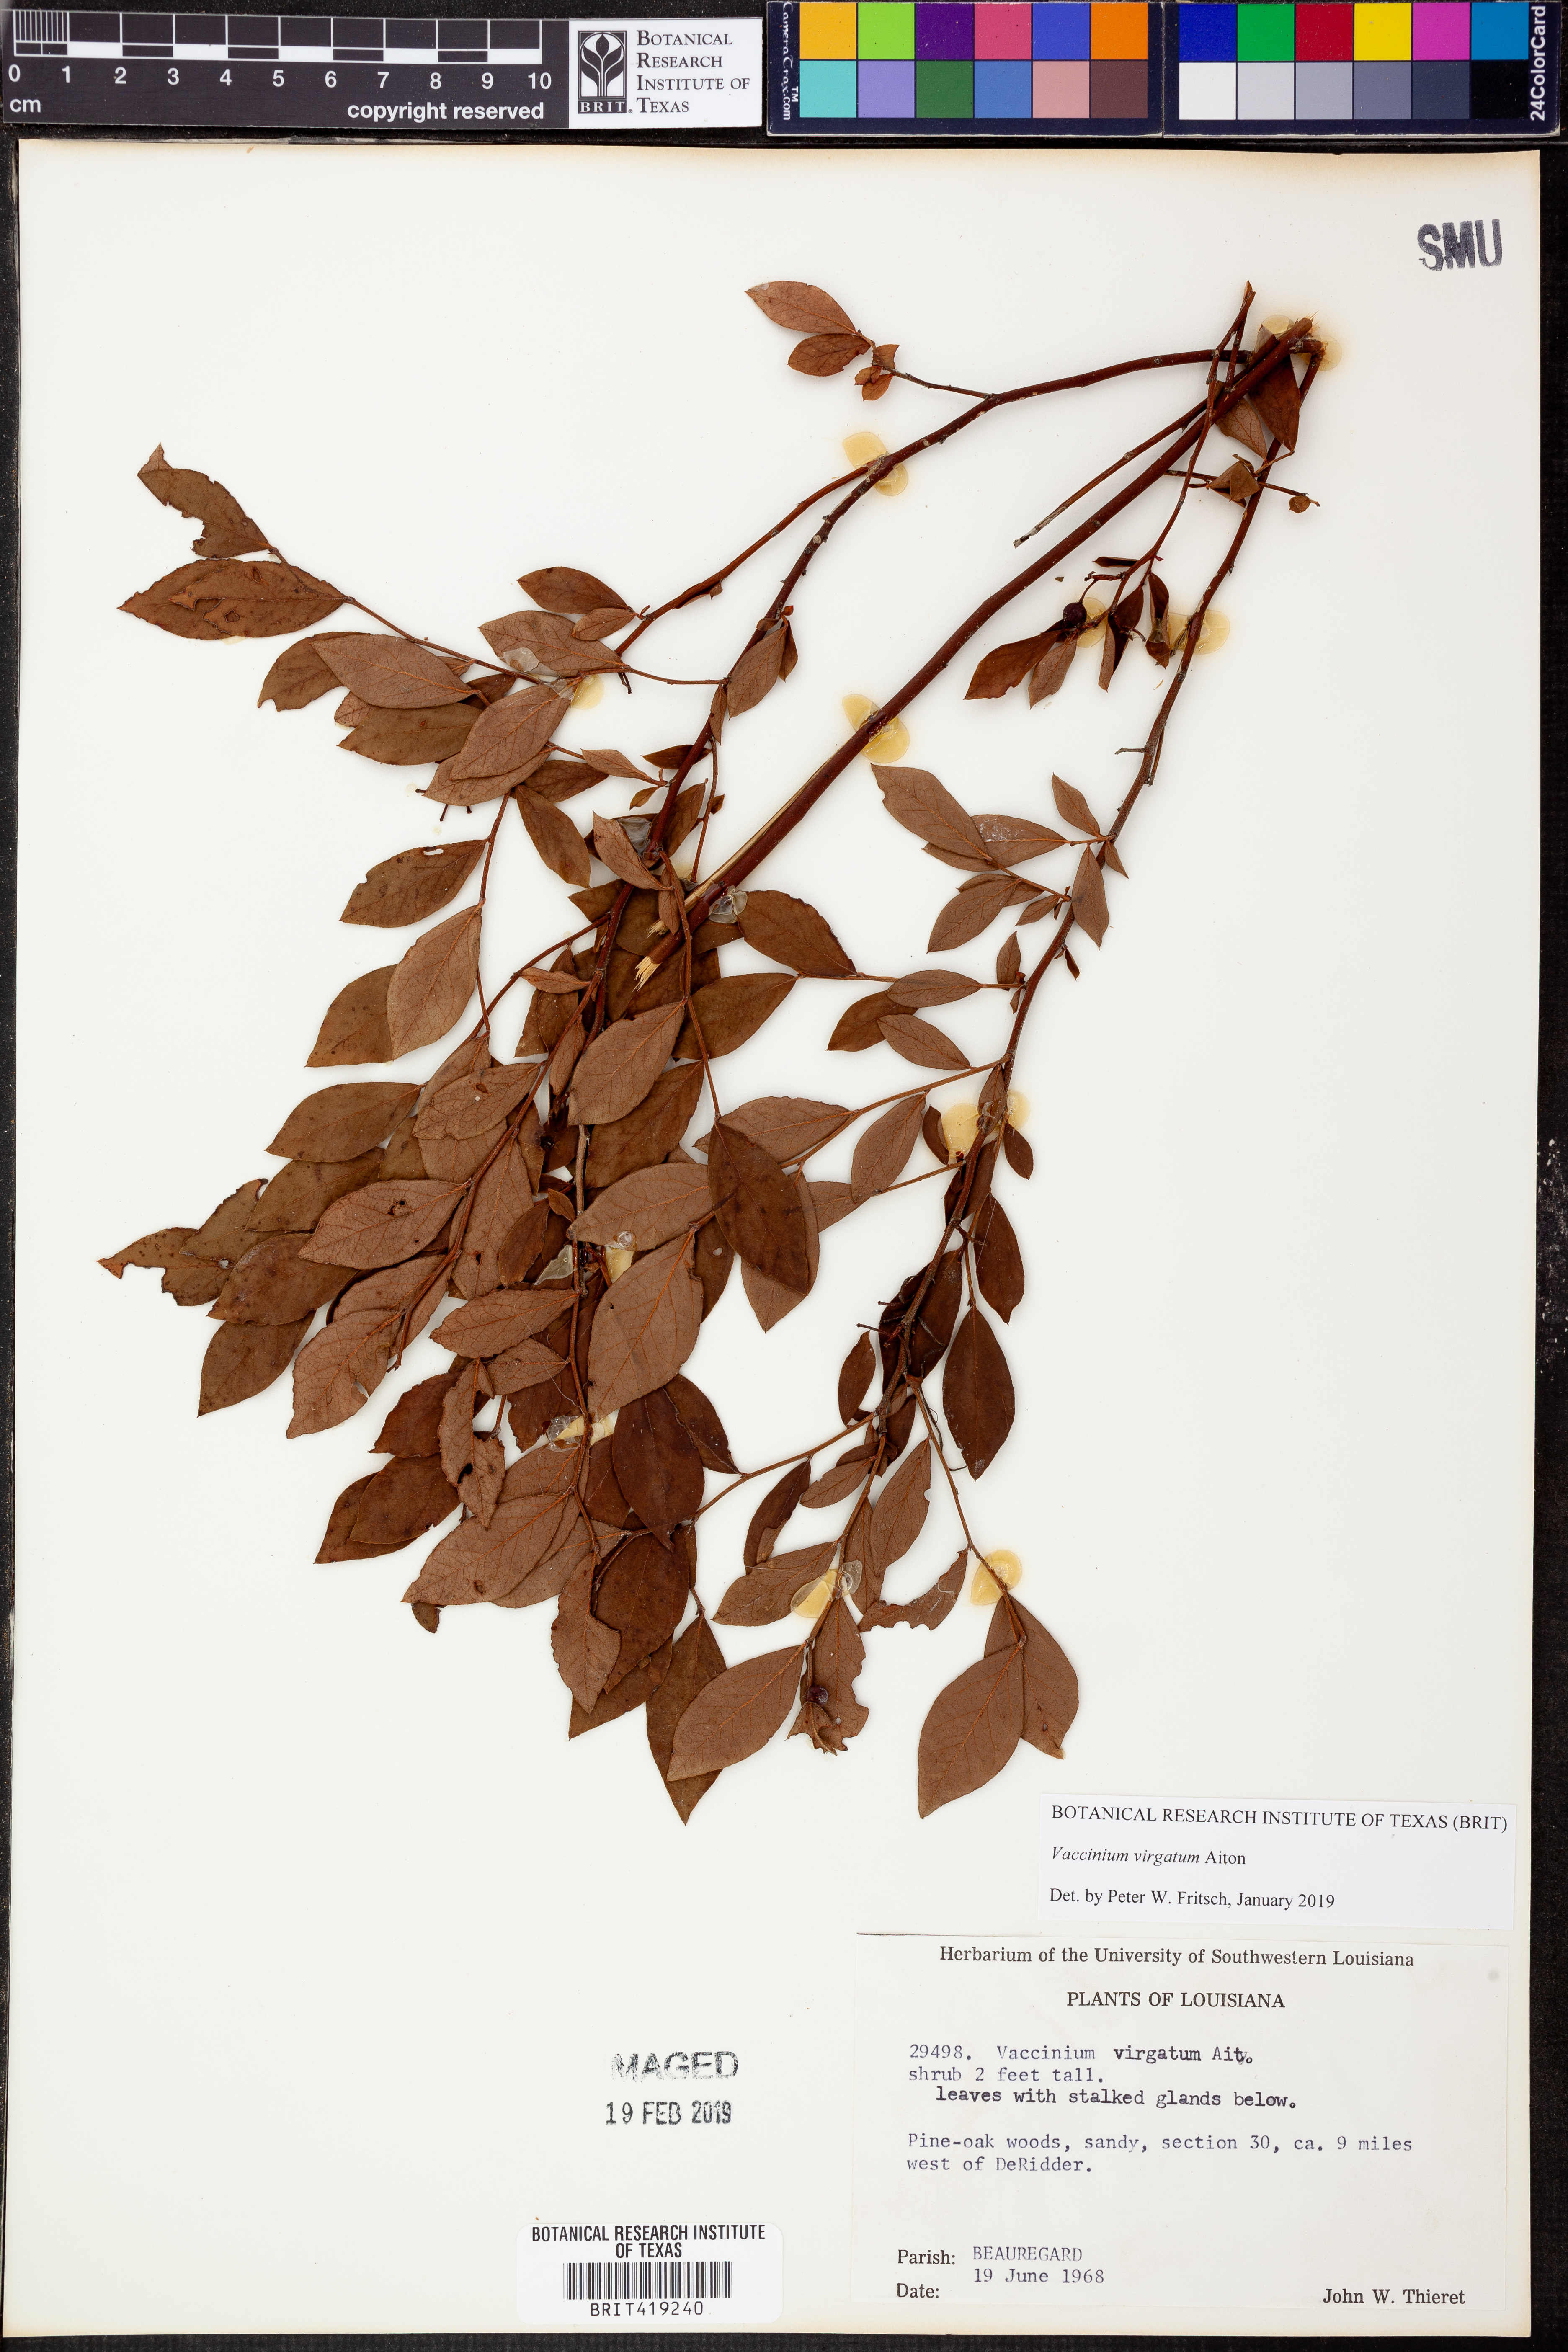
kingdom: Plantae
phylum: Tracheophyta
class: Magnoliopsida
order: Ericales
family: Ericaceae
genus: Vaccinium
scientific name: Vaccinium corymbosum
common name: Blueberry
